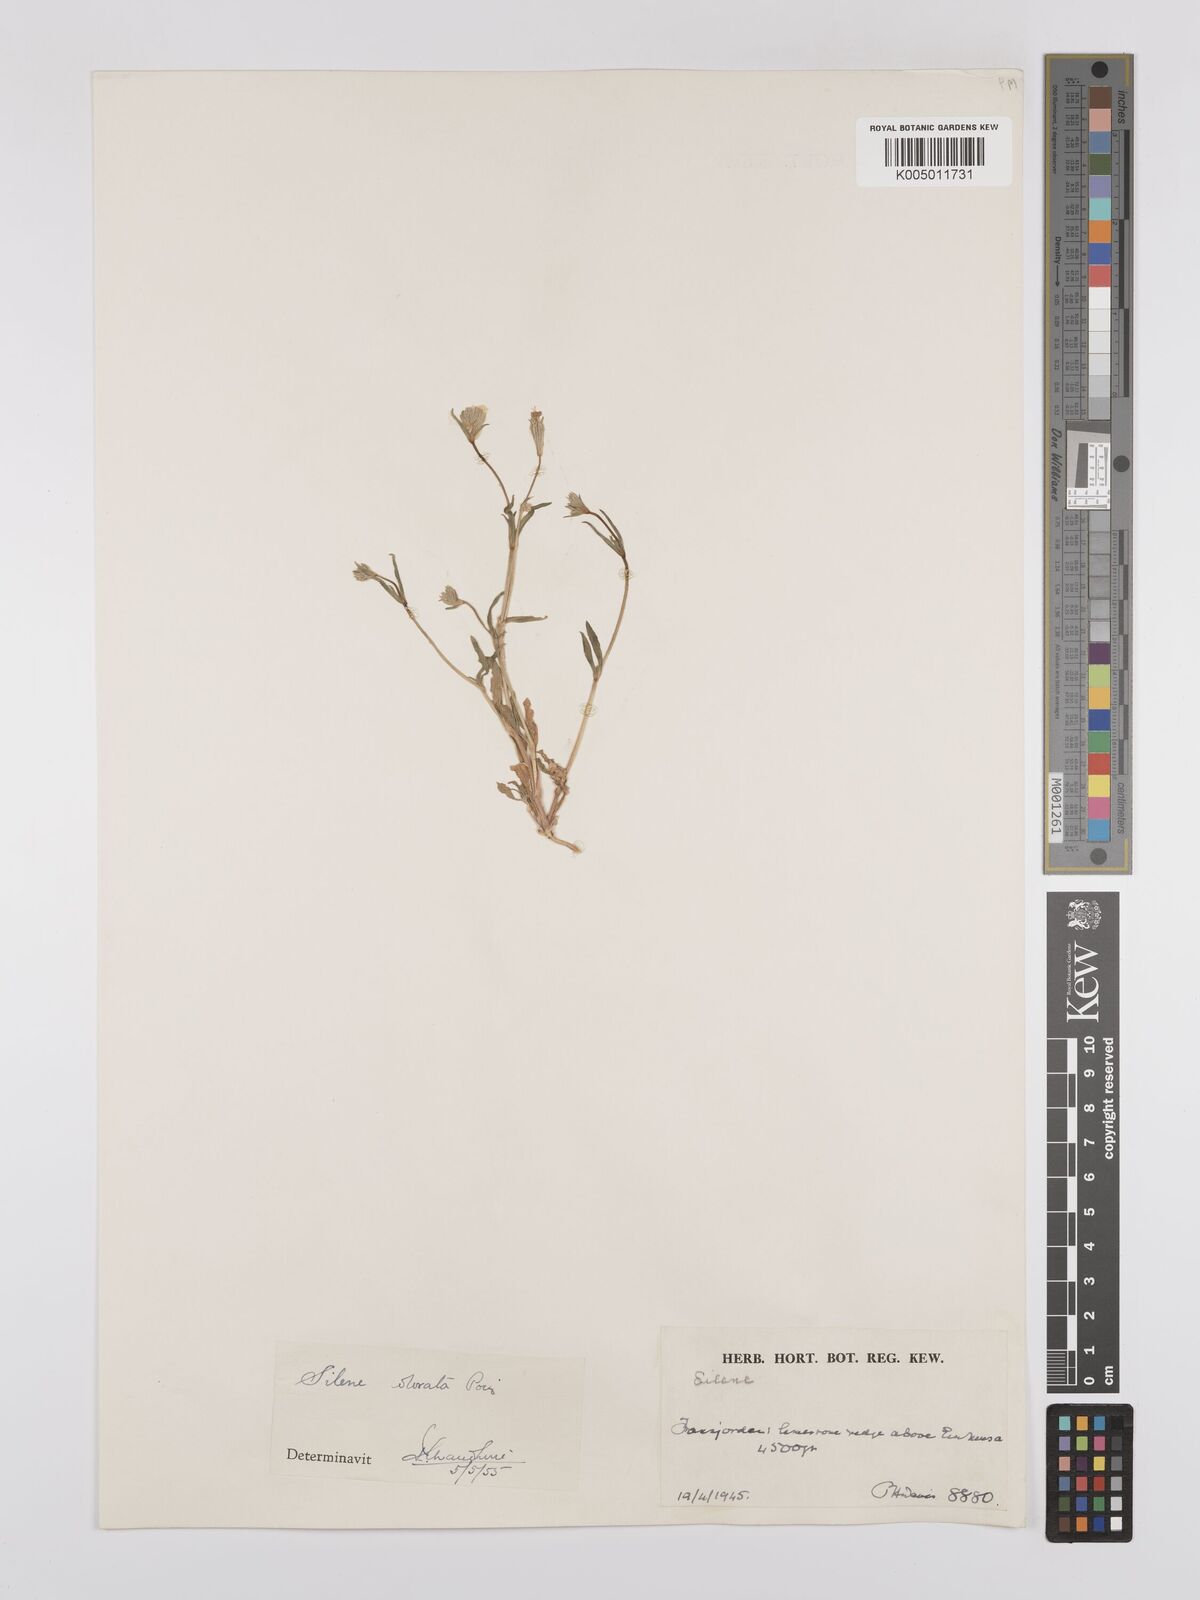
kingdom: Plantae
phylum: Tracheophyta
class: Magnoliopsida
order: Caryophyllales
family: Caryophyllaceae
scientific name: Caryophyllaceae
